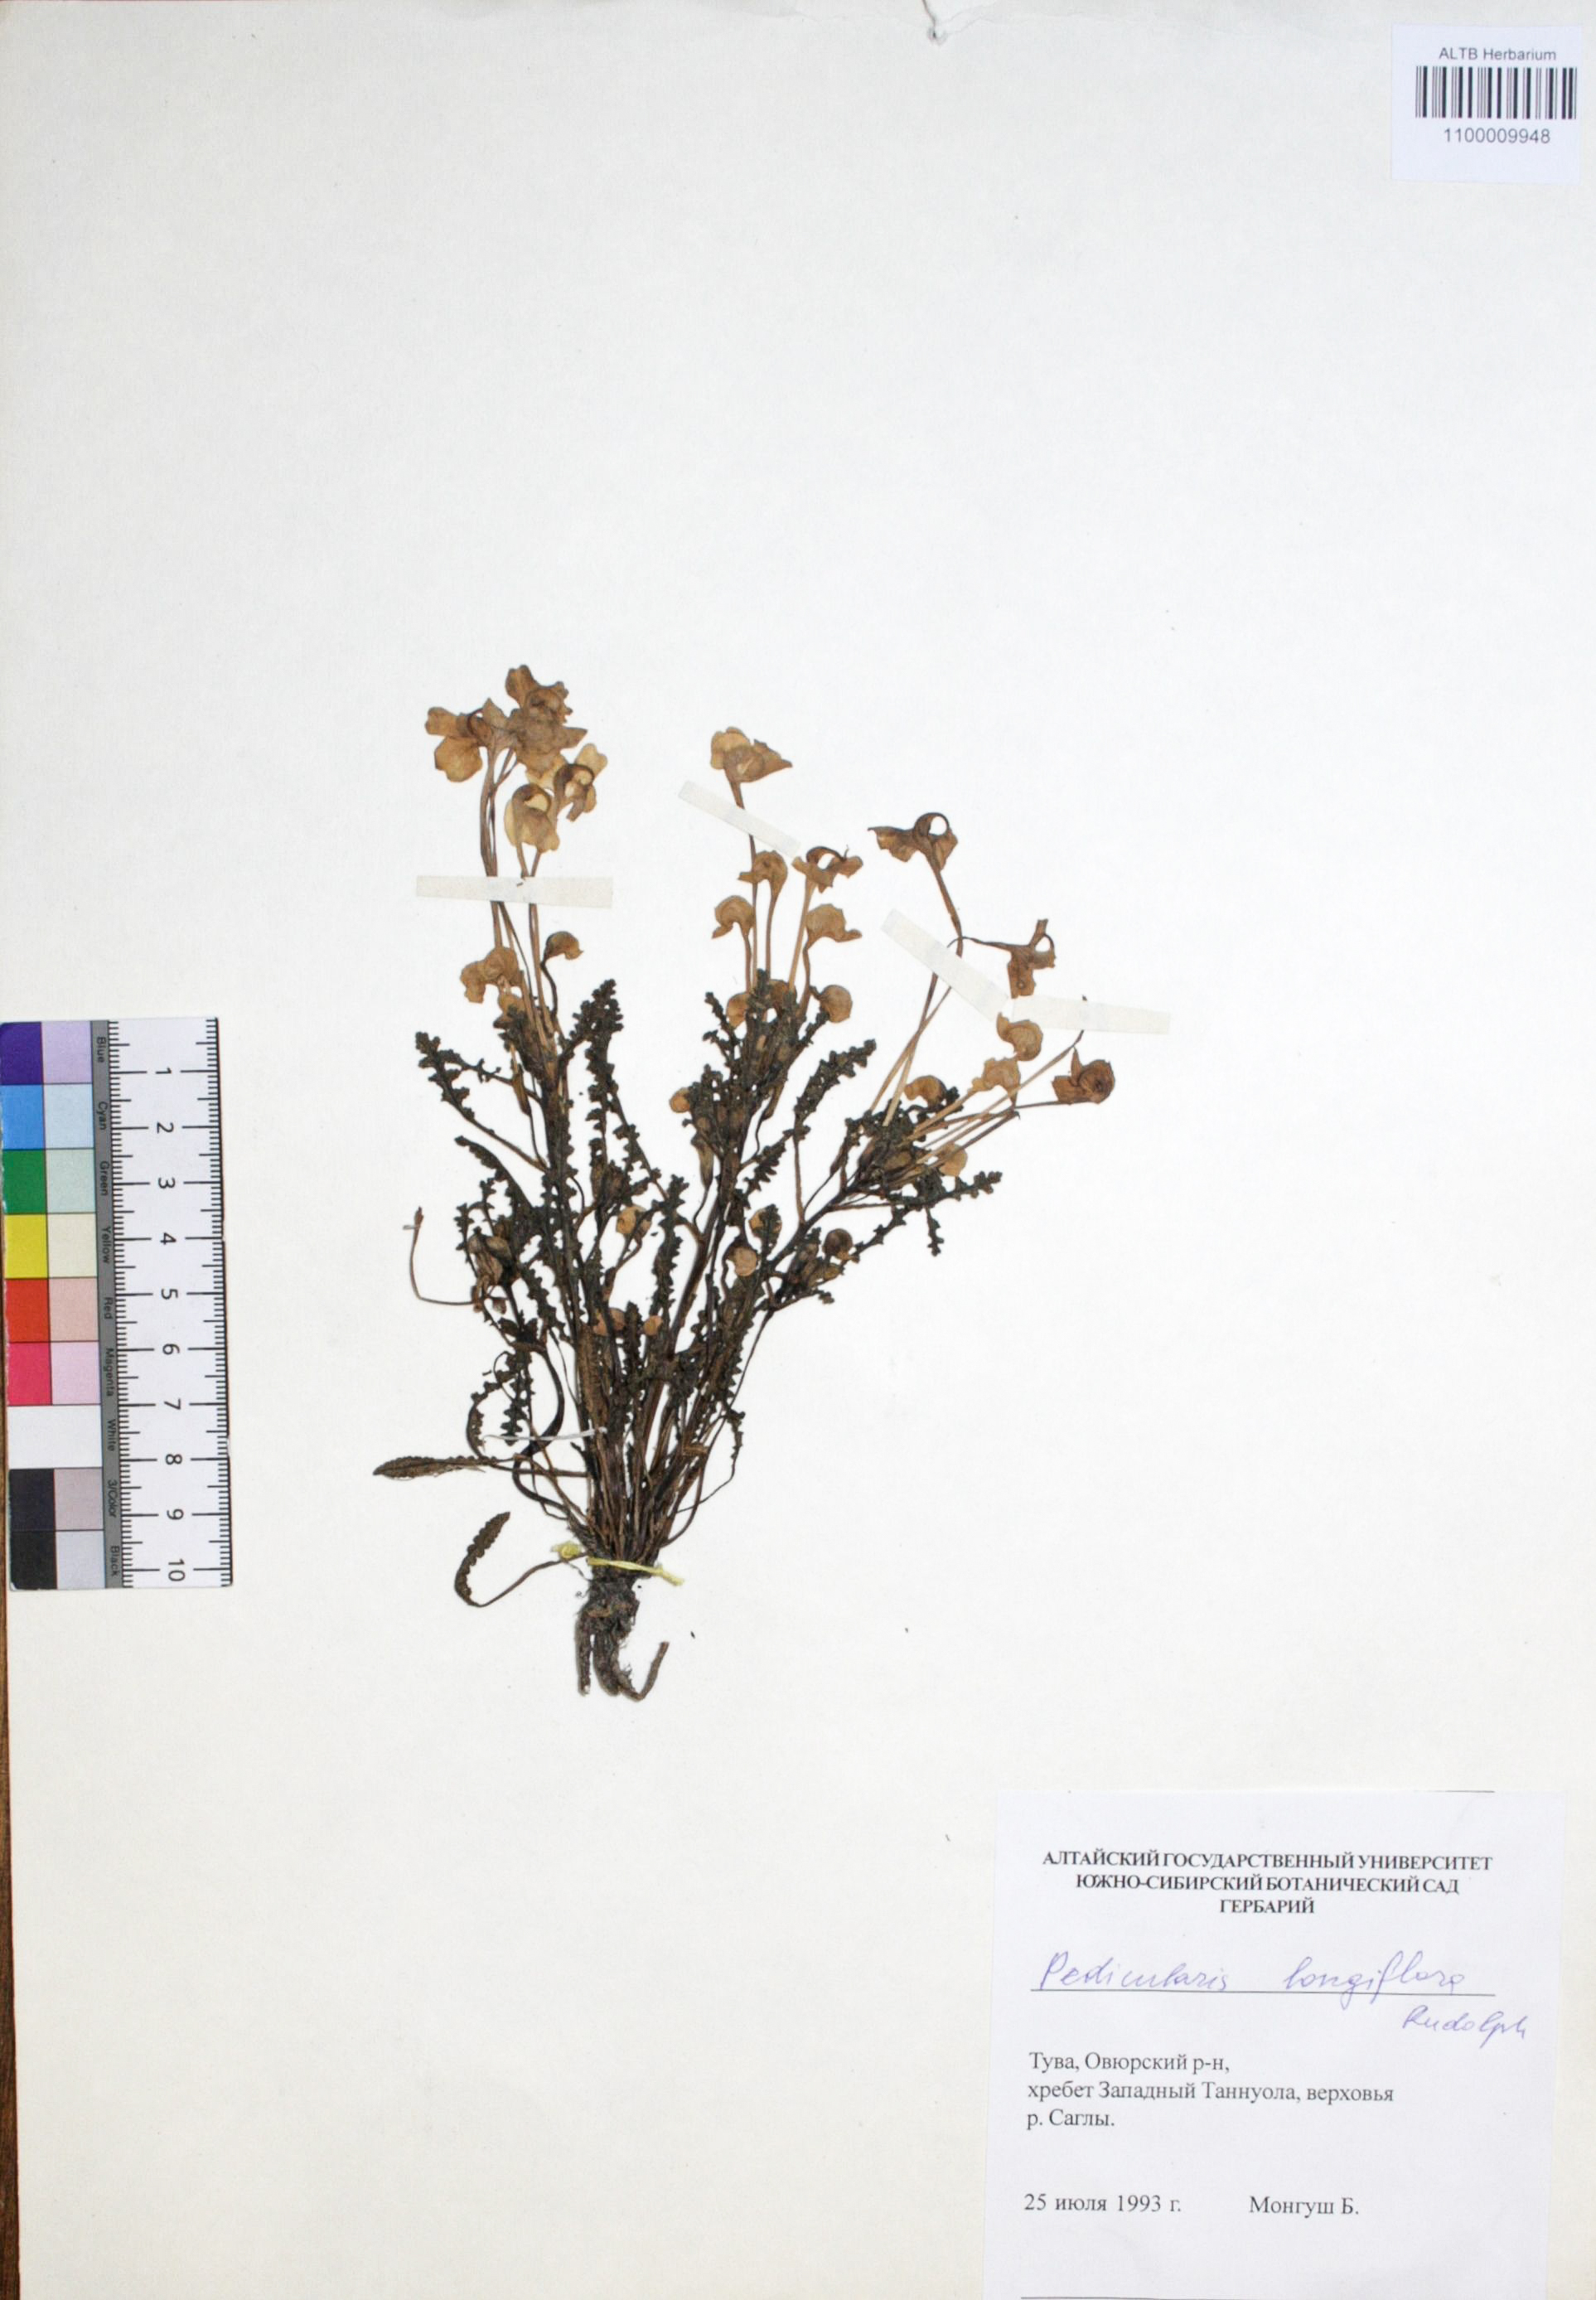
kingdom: Plantae
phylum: Tracheophyta
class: Magnoliopsida
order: Lamiales
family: Orobanchaceae
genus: Pedicularis
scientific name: Pedicularis longiflora
